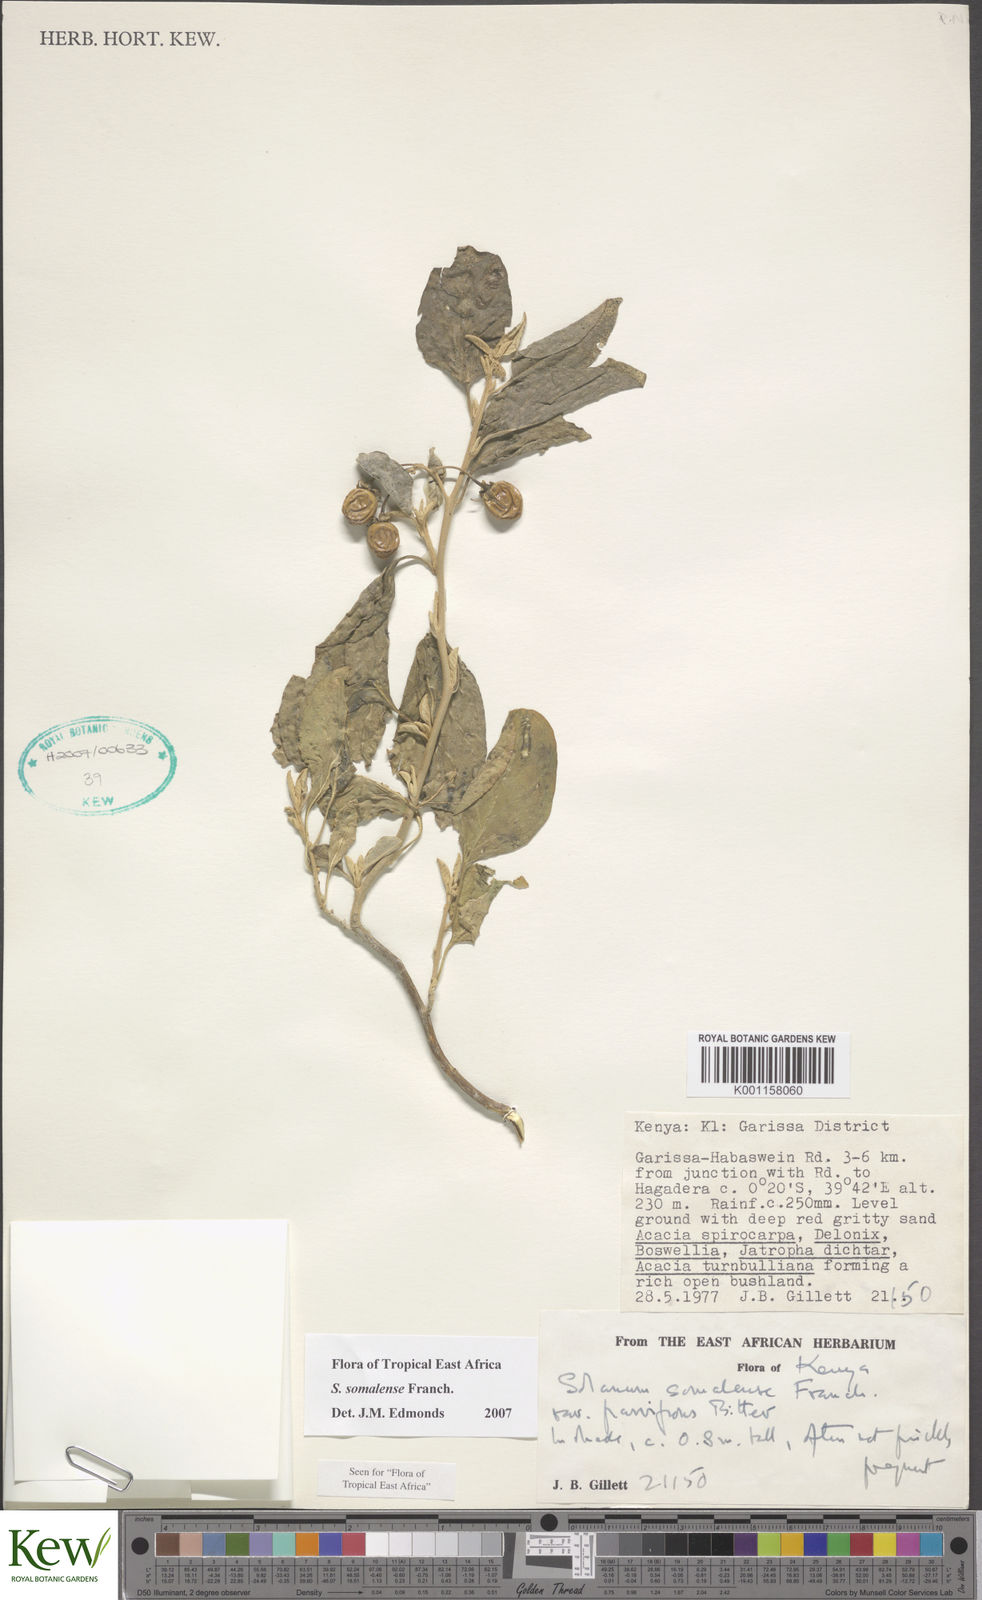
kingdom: Plantae
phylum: Tracheophyta
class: Magnoliopsida
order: Solanales
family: Solanaceae
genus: Solanum
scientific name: Solanum somalense
